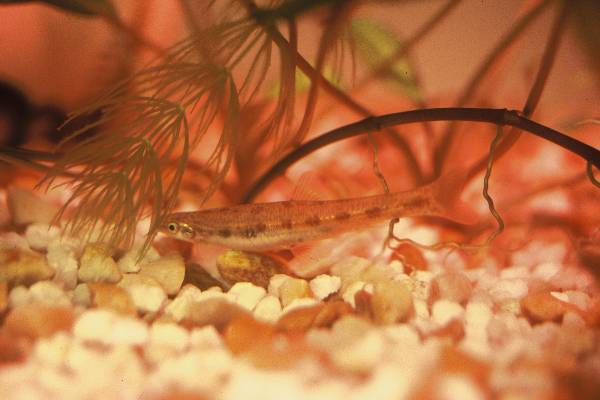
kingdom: Animalia
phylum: Chordata
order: Gonorynchiformes
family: Kneriidae
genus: Kneria
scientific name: Kneria
